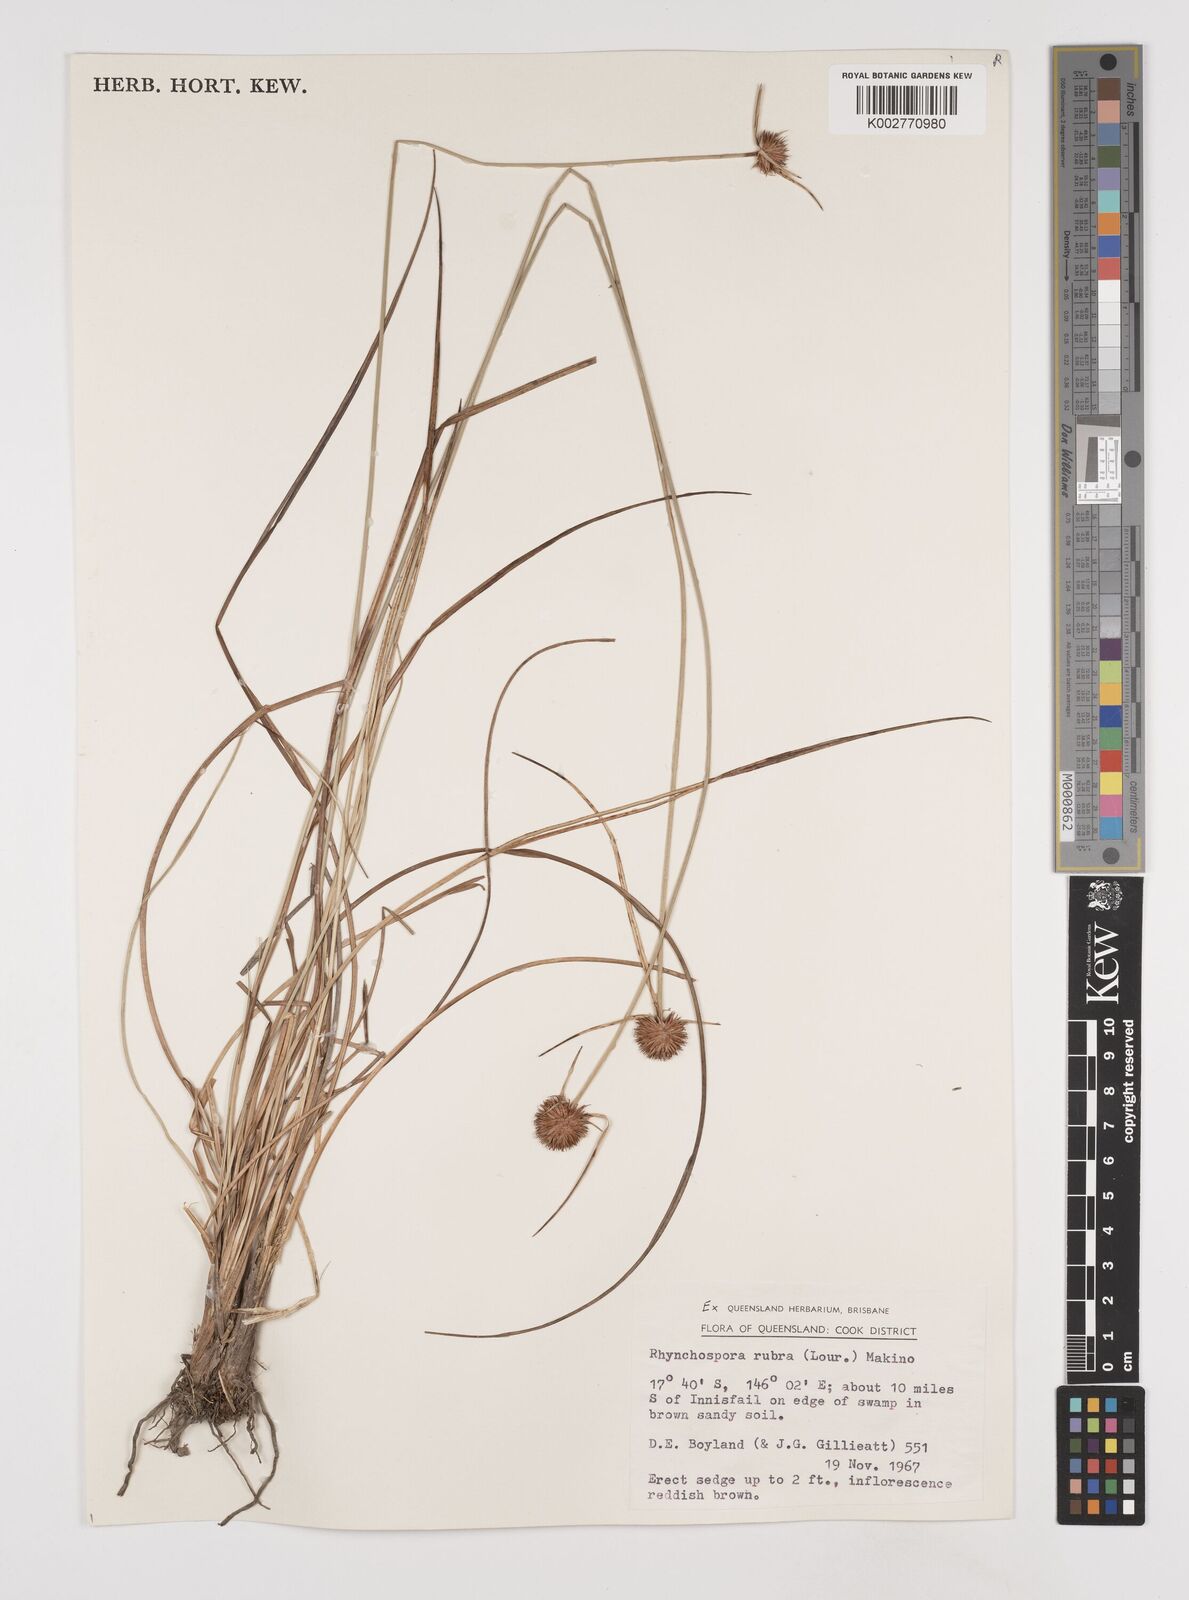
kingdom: Plantae
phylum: Tracheophyta
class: Liliopsida
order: Poales
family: Cyperaceae
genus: Rhynchospora
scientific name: Rhynchospora rubra
